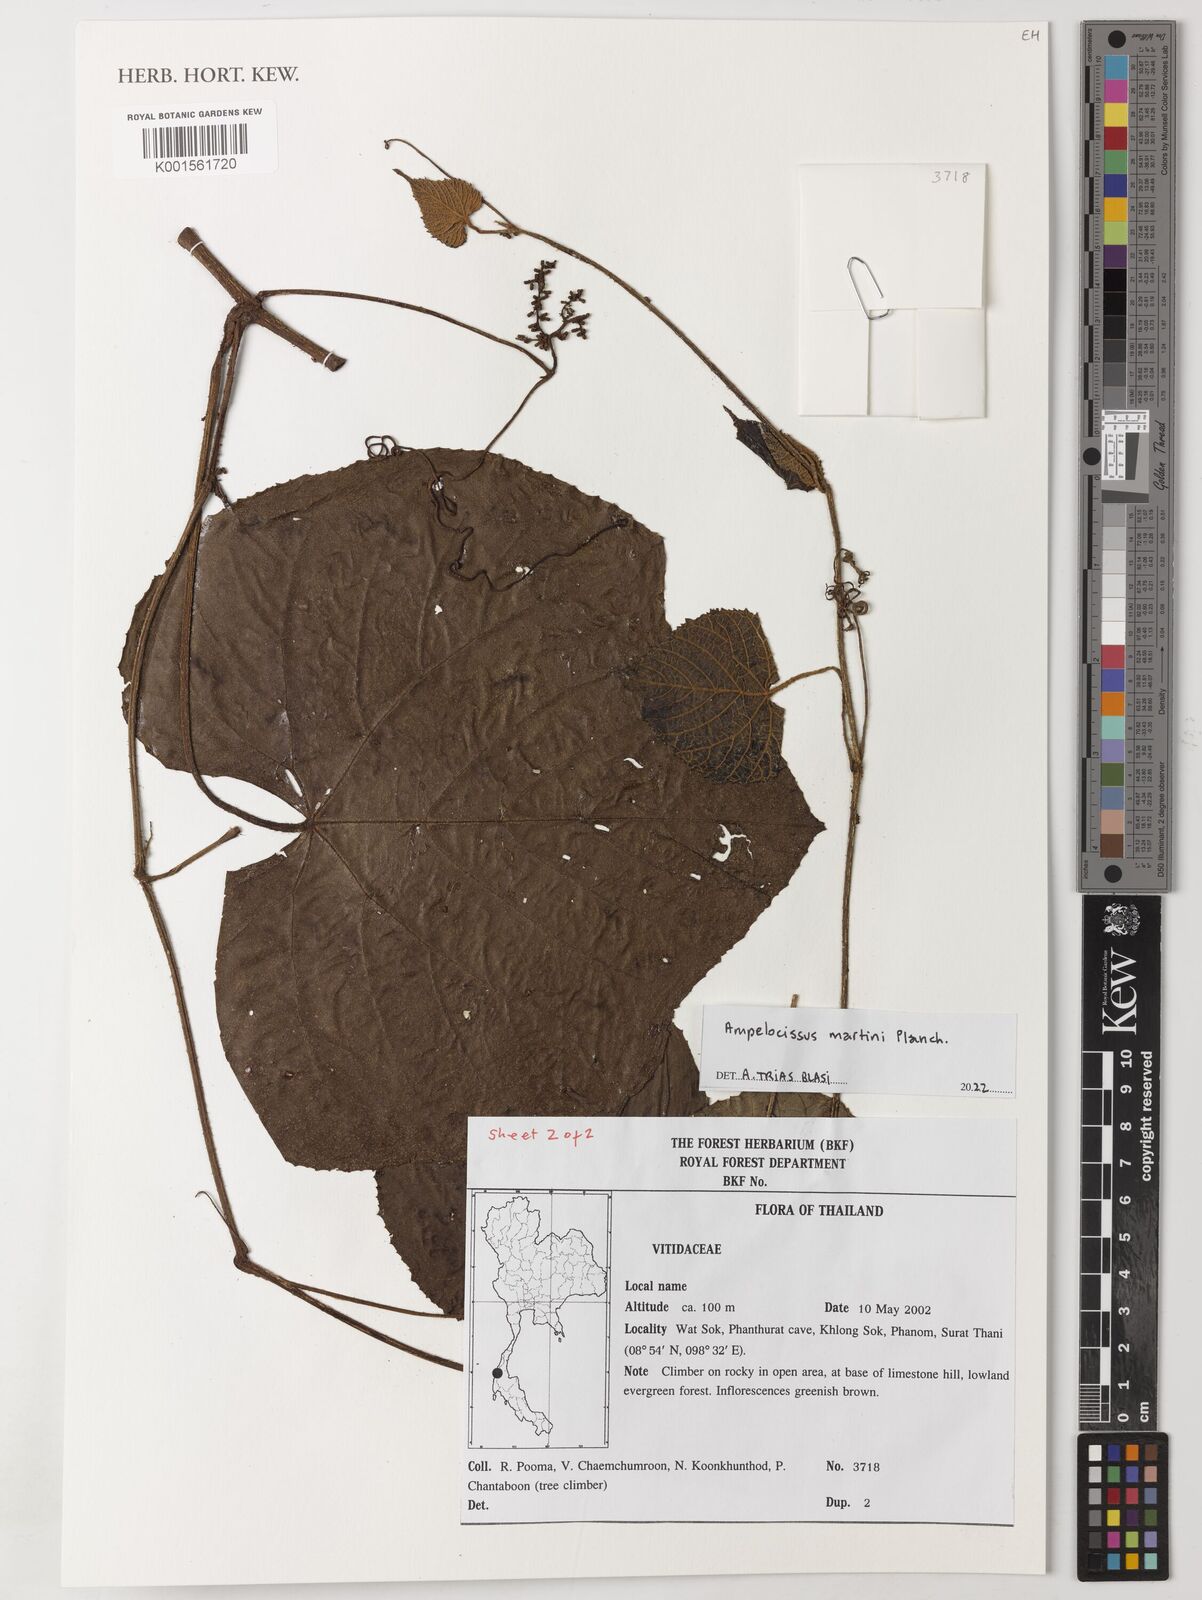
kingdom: Plantae
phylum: Tracheophyta
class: Magnoliopsida
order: Vitales
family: Vitaceae
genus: Ampelocissus
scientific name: Ampelocissus martini
